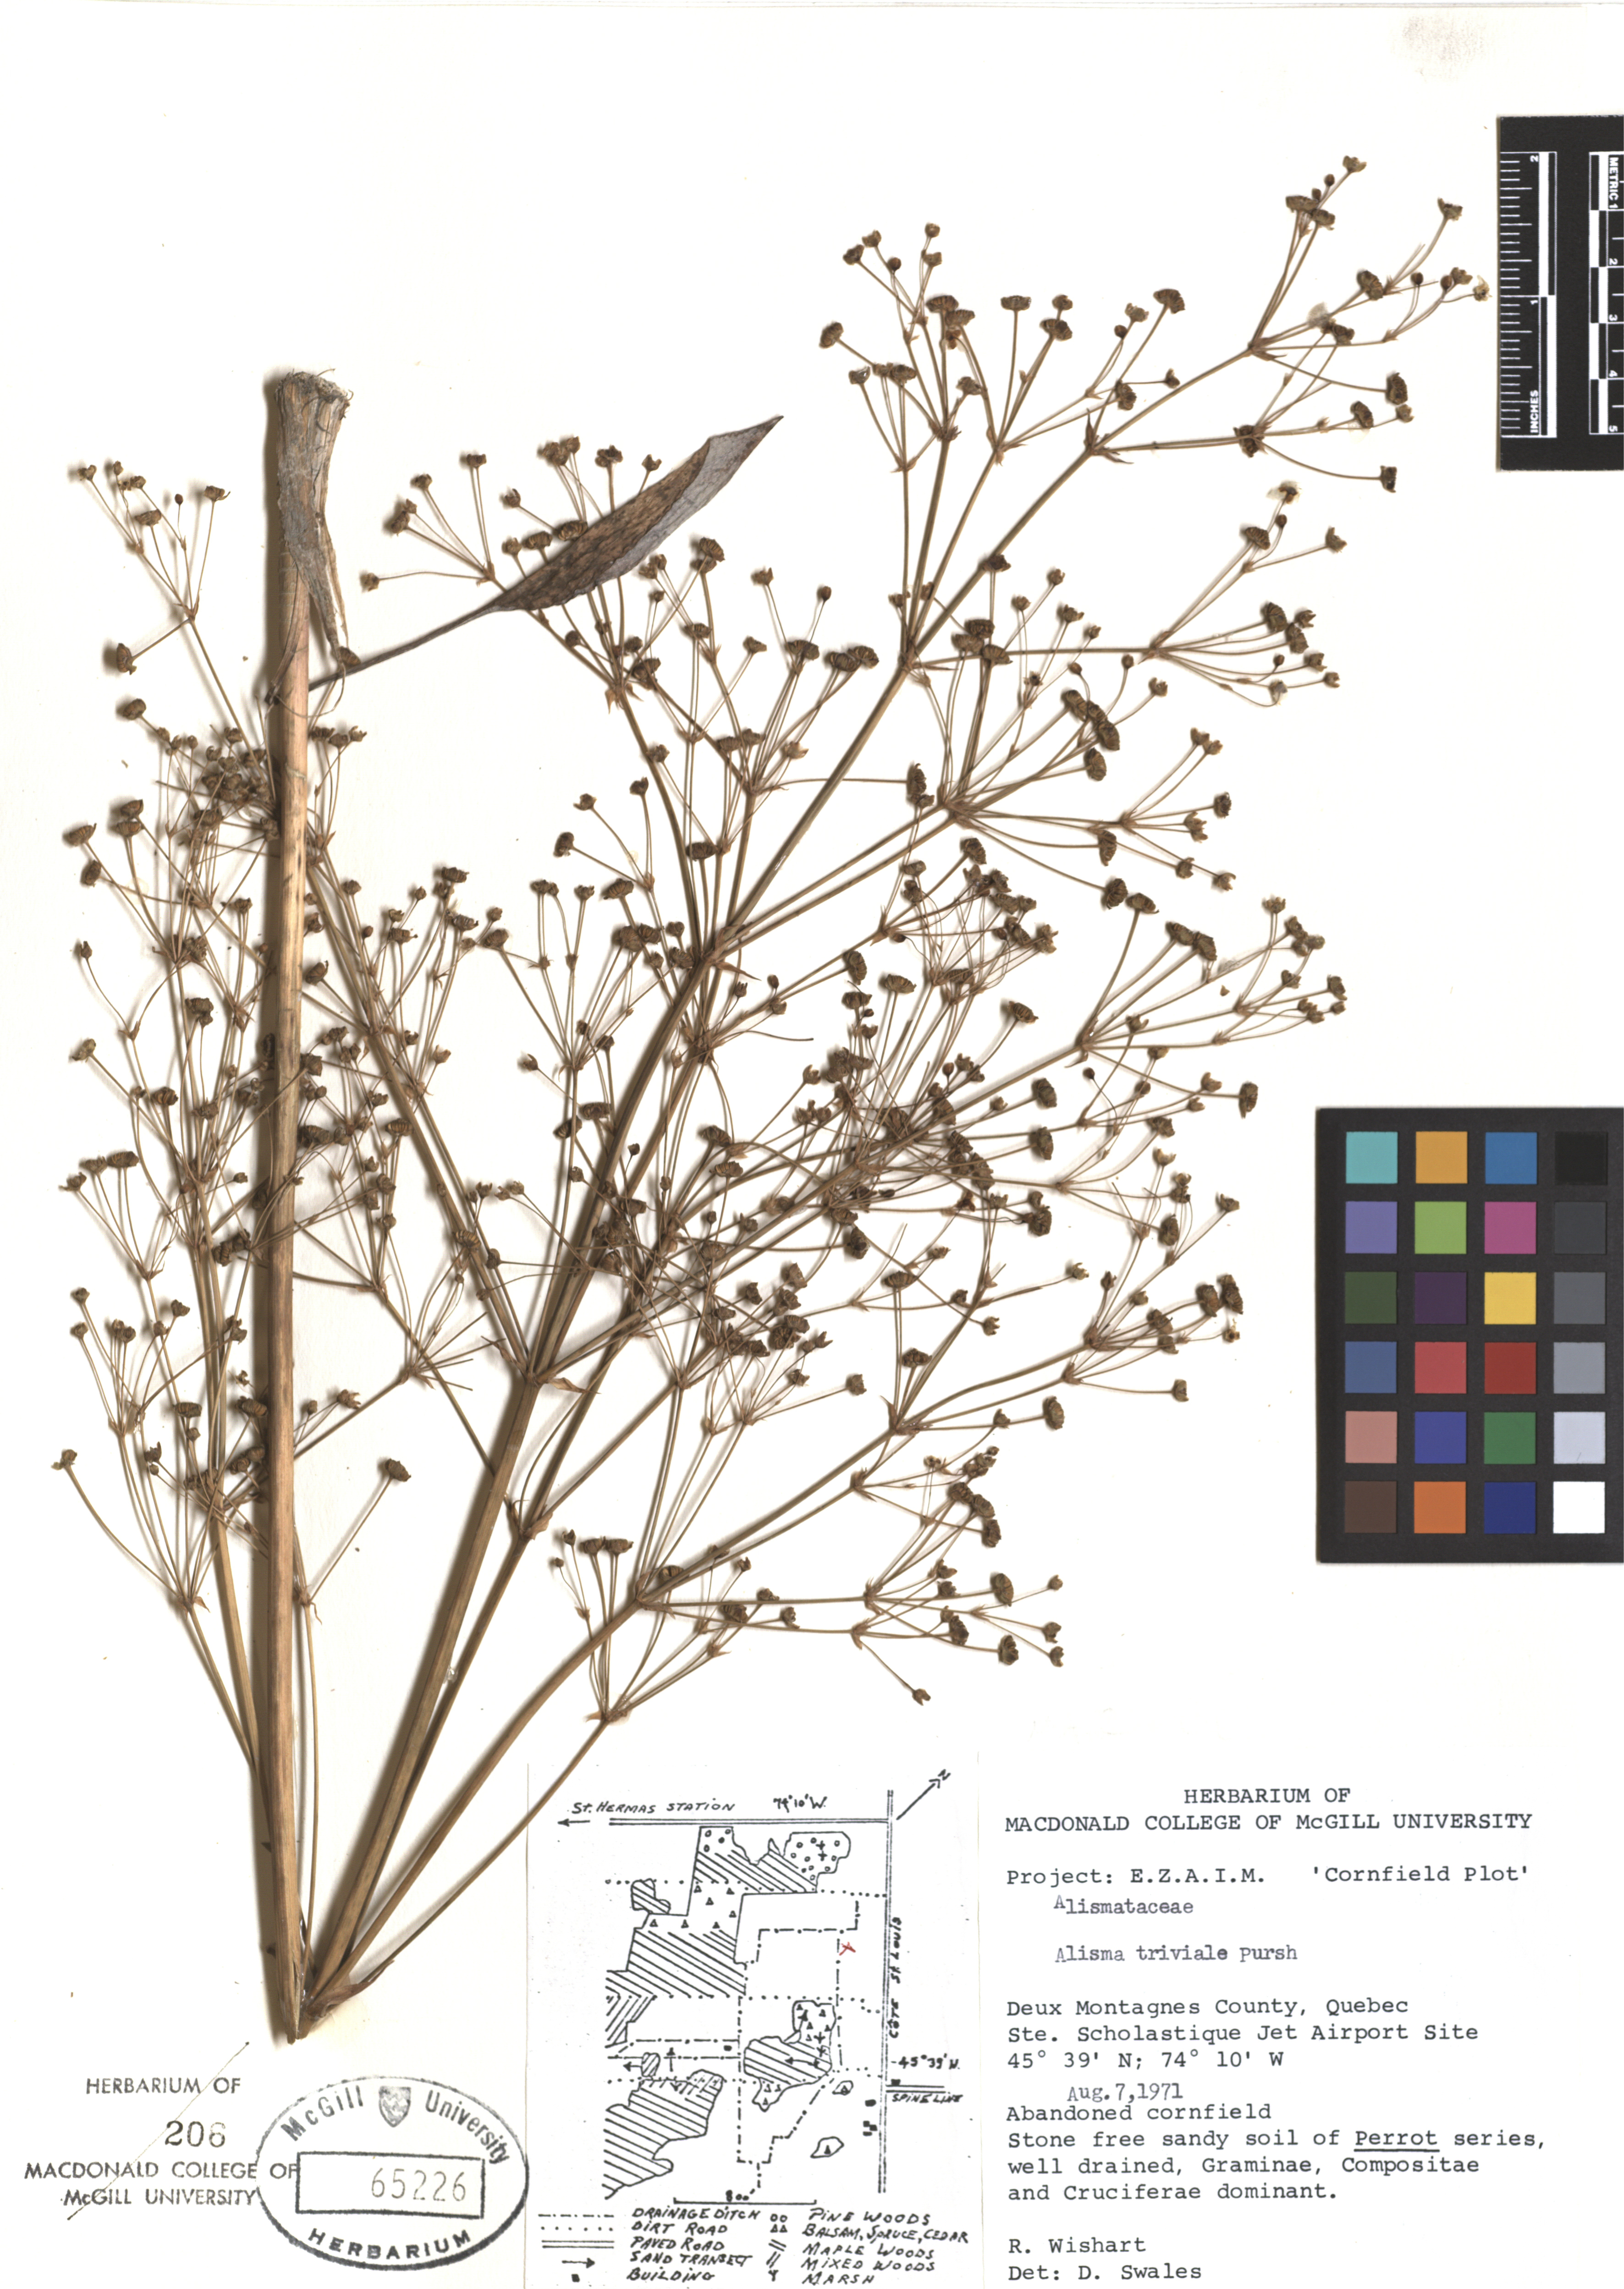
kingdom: Plantae
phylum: Tracheophyta
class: Liliopsida
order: Alismatales
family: Alismataceae
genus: Alisma
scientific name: Alisma triviale
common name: Northern water-plantain
